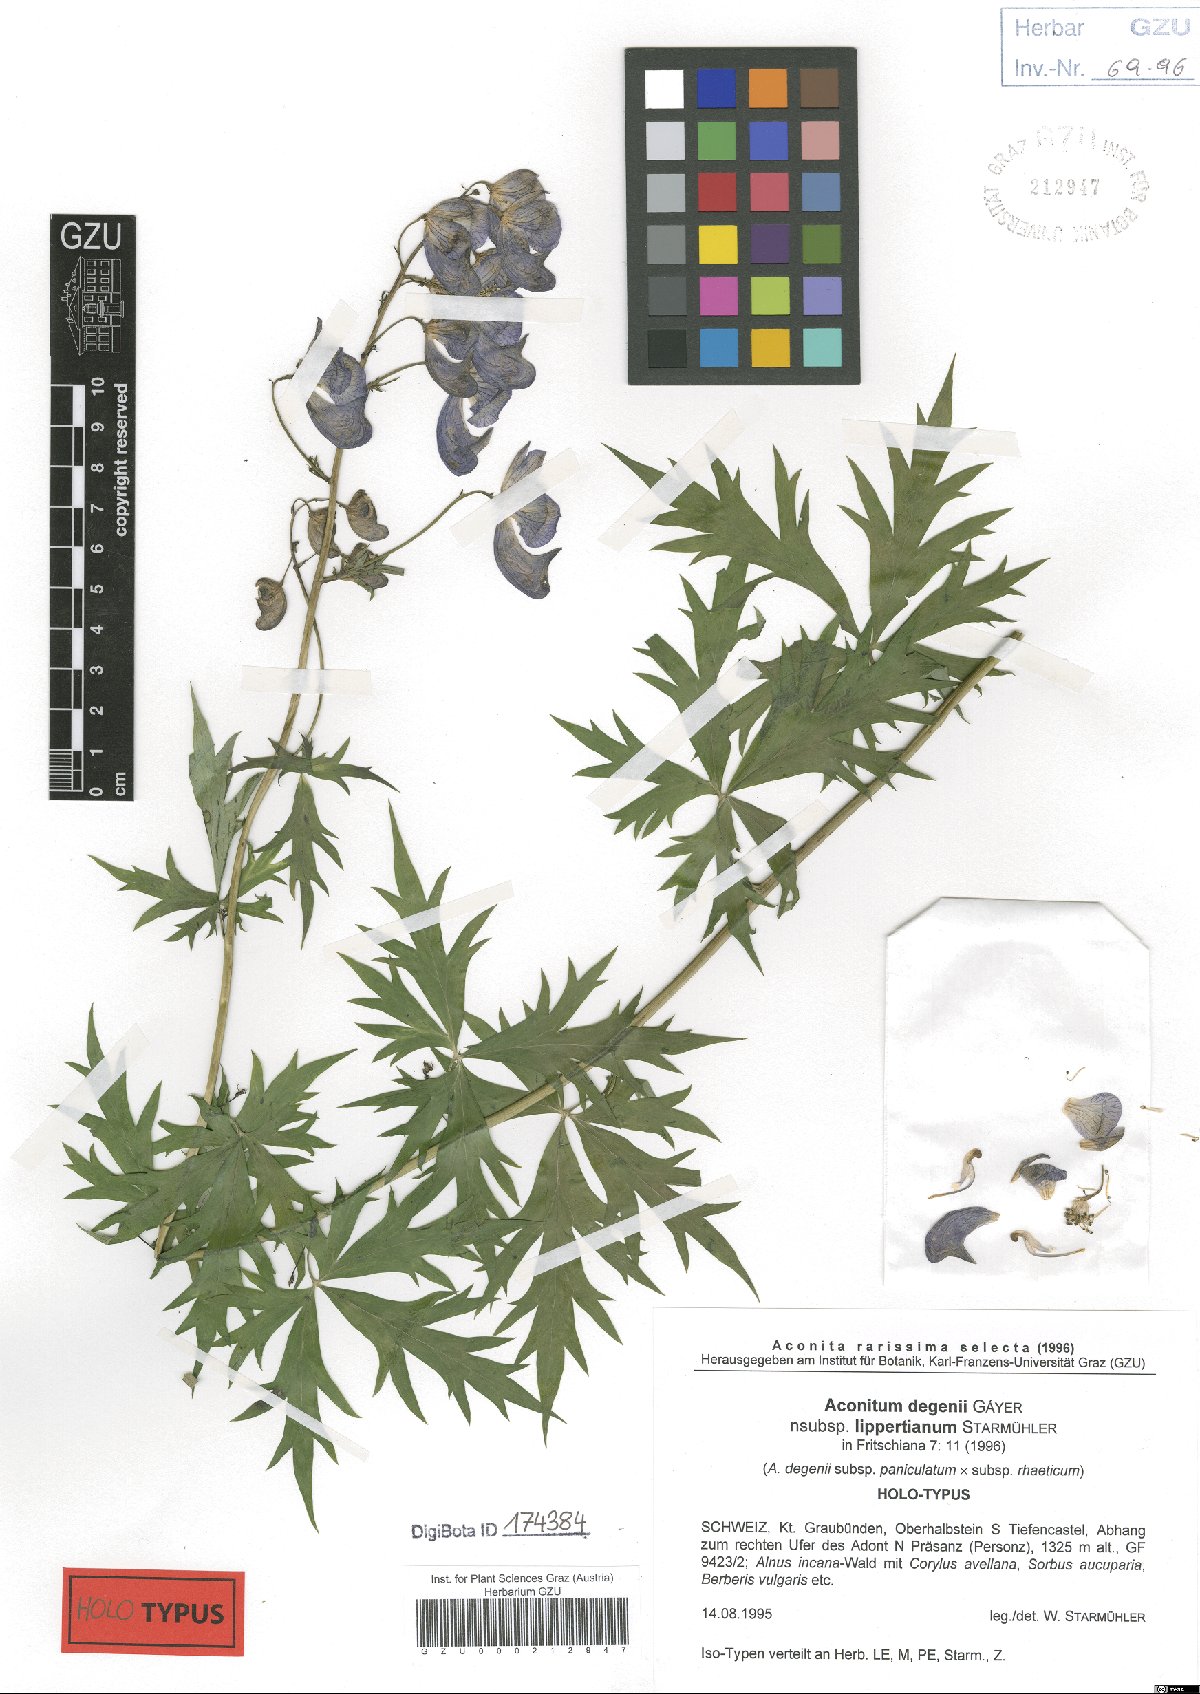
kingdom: Plantae
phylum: Tracheophyta
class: Magnoliopsida
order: Ranunculales
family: Ranunculaceae
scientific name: Ranunculaceae
